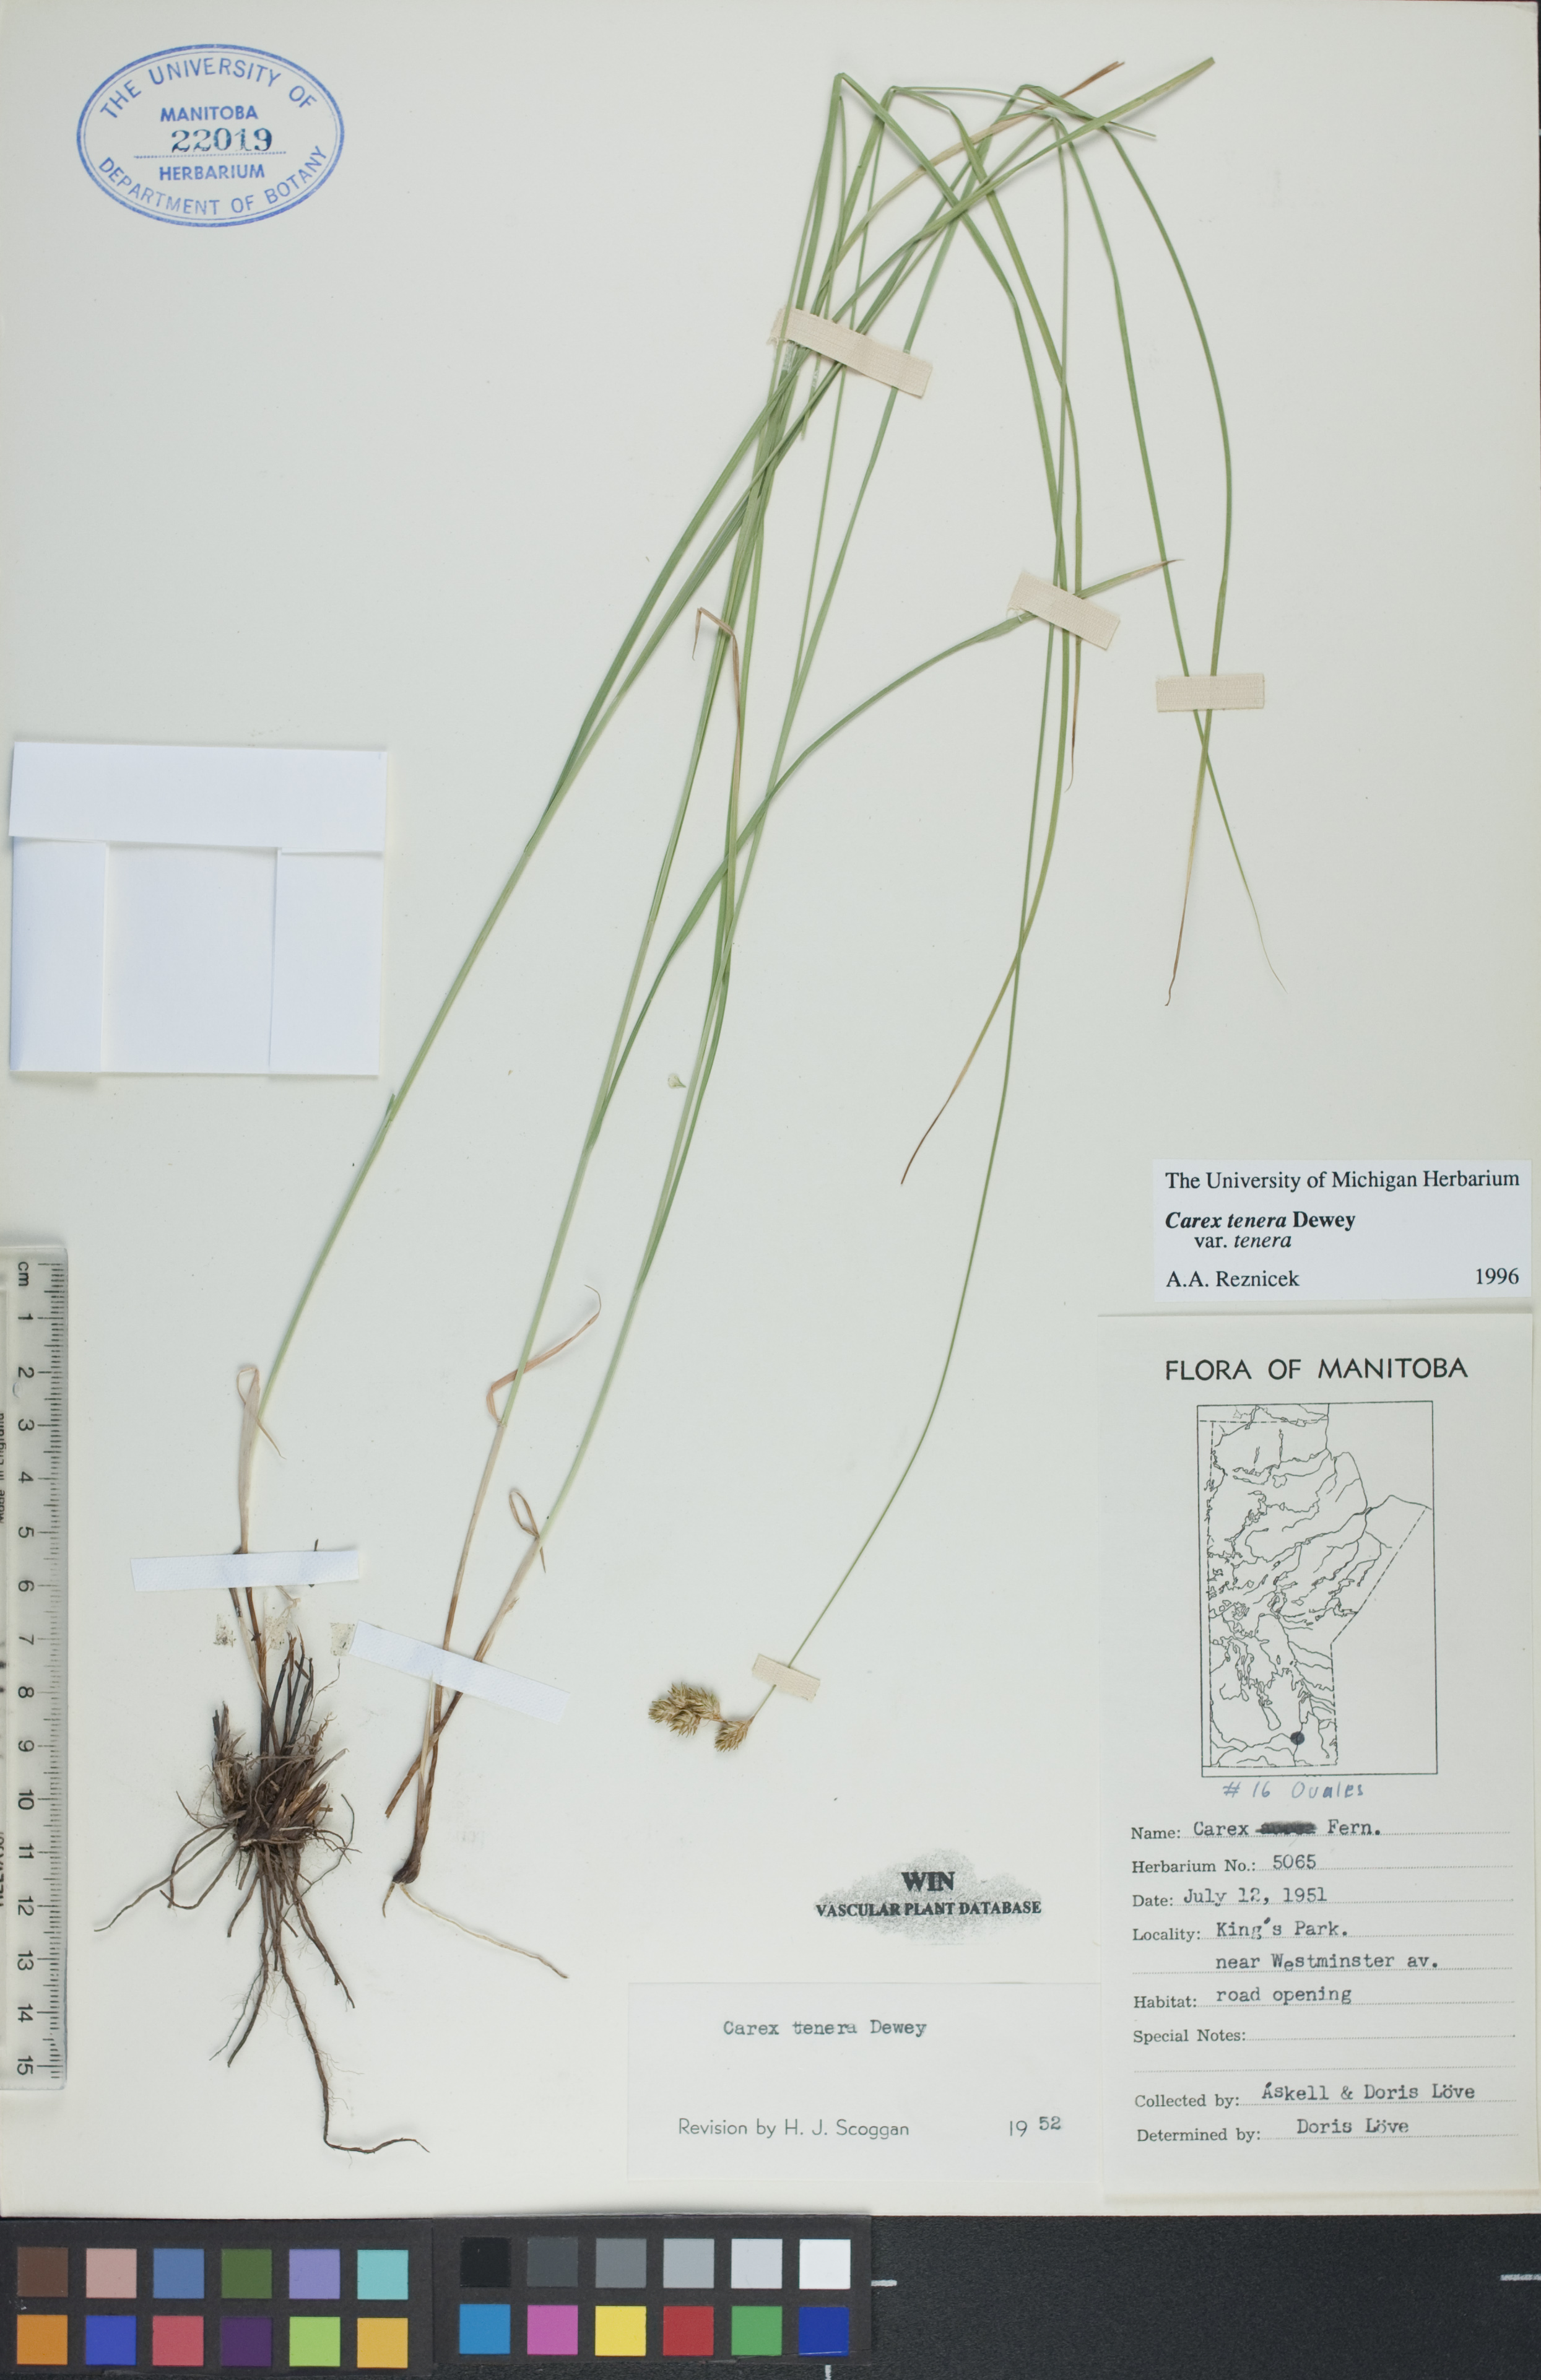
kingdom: Plantae
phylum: Tracheophyta
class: Liliopsida
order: Poales
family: Cyperaceae
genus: Carex
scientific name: Carex tenera
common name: Broad-fruited sedge
